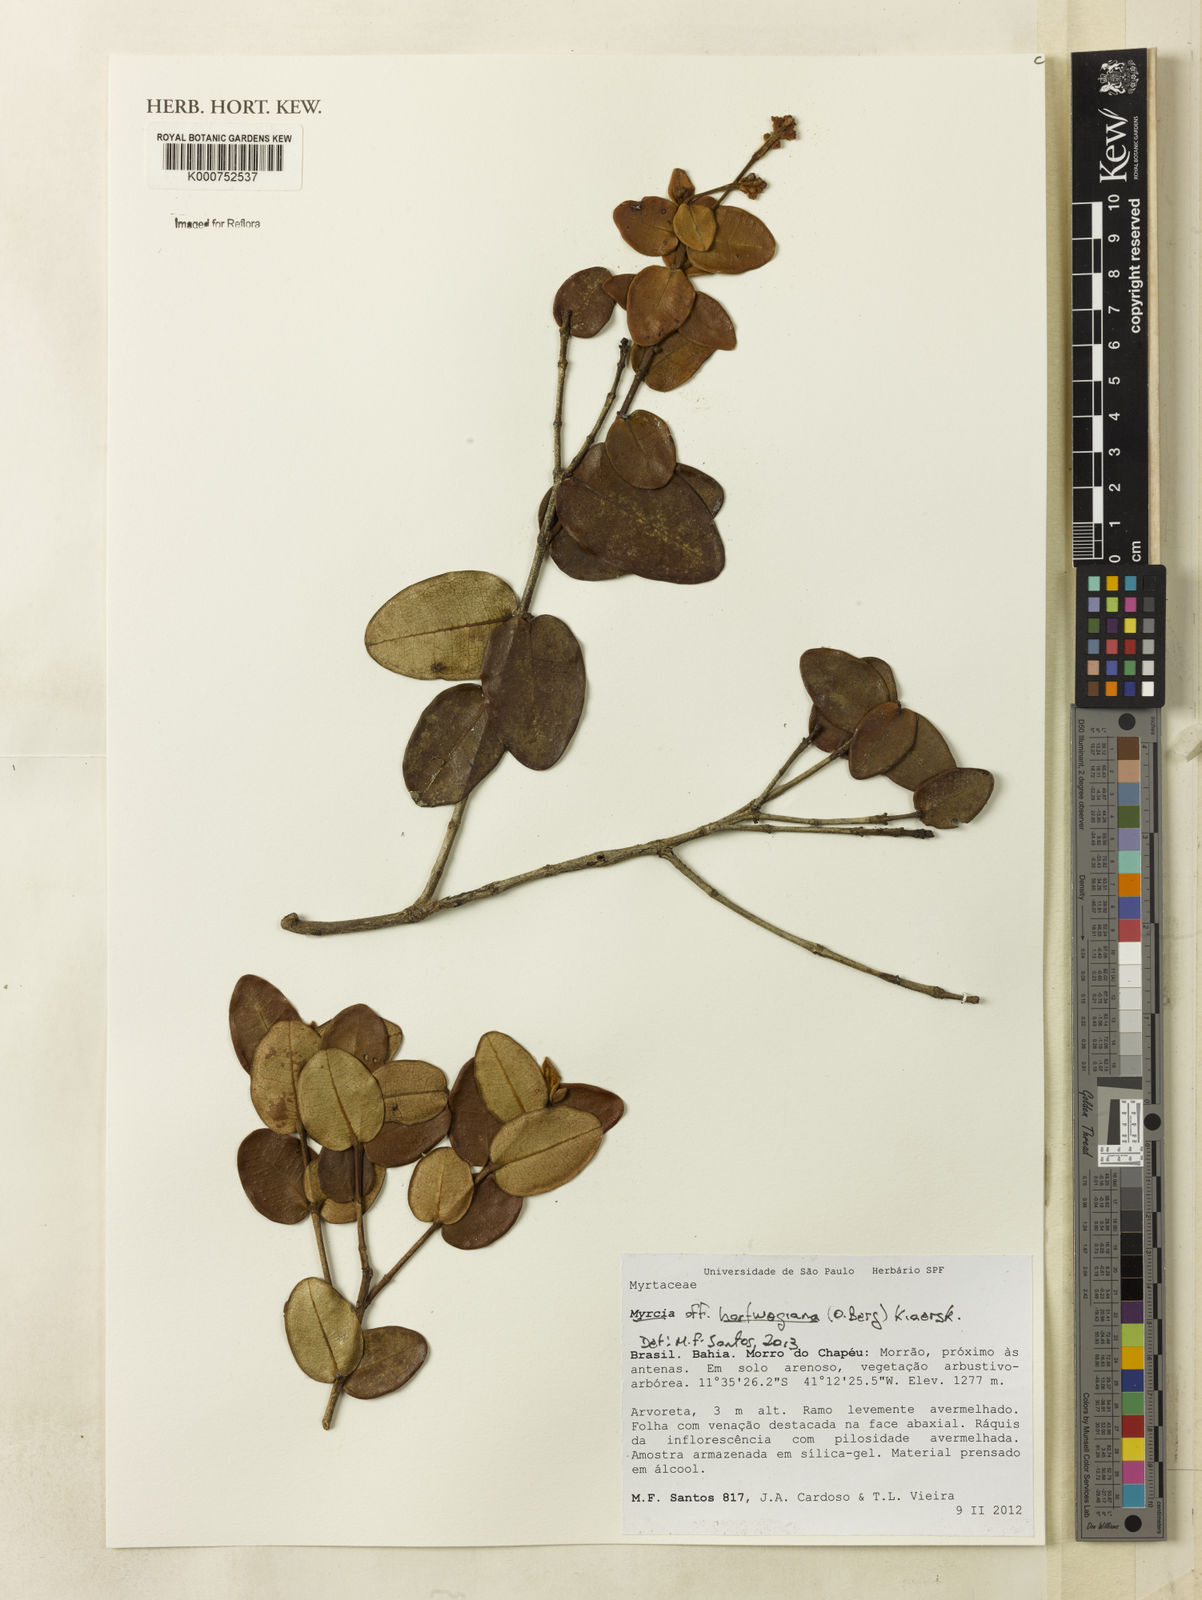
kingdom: Plantae
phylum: Tracheophyta
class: Magnoliopsida
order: Myrtales
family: Myrtaceae
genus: Myrcia
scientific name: Myrcia freyreissiana
